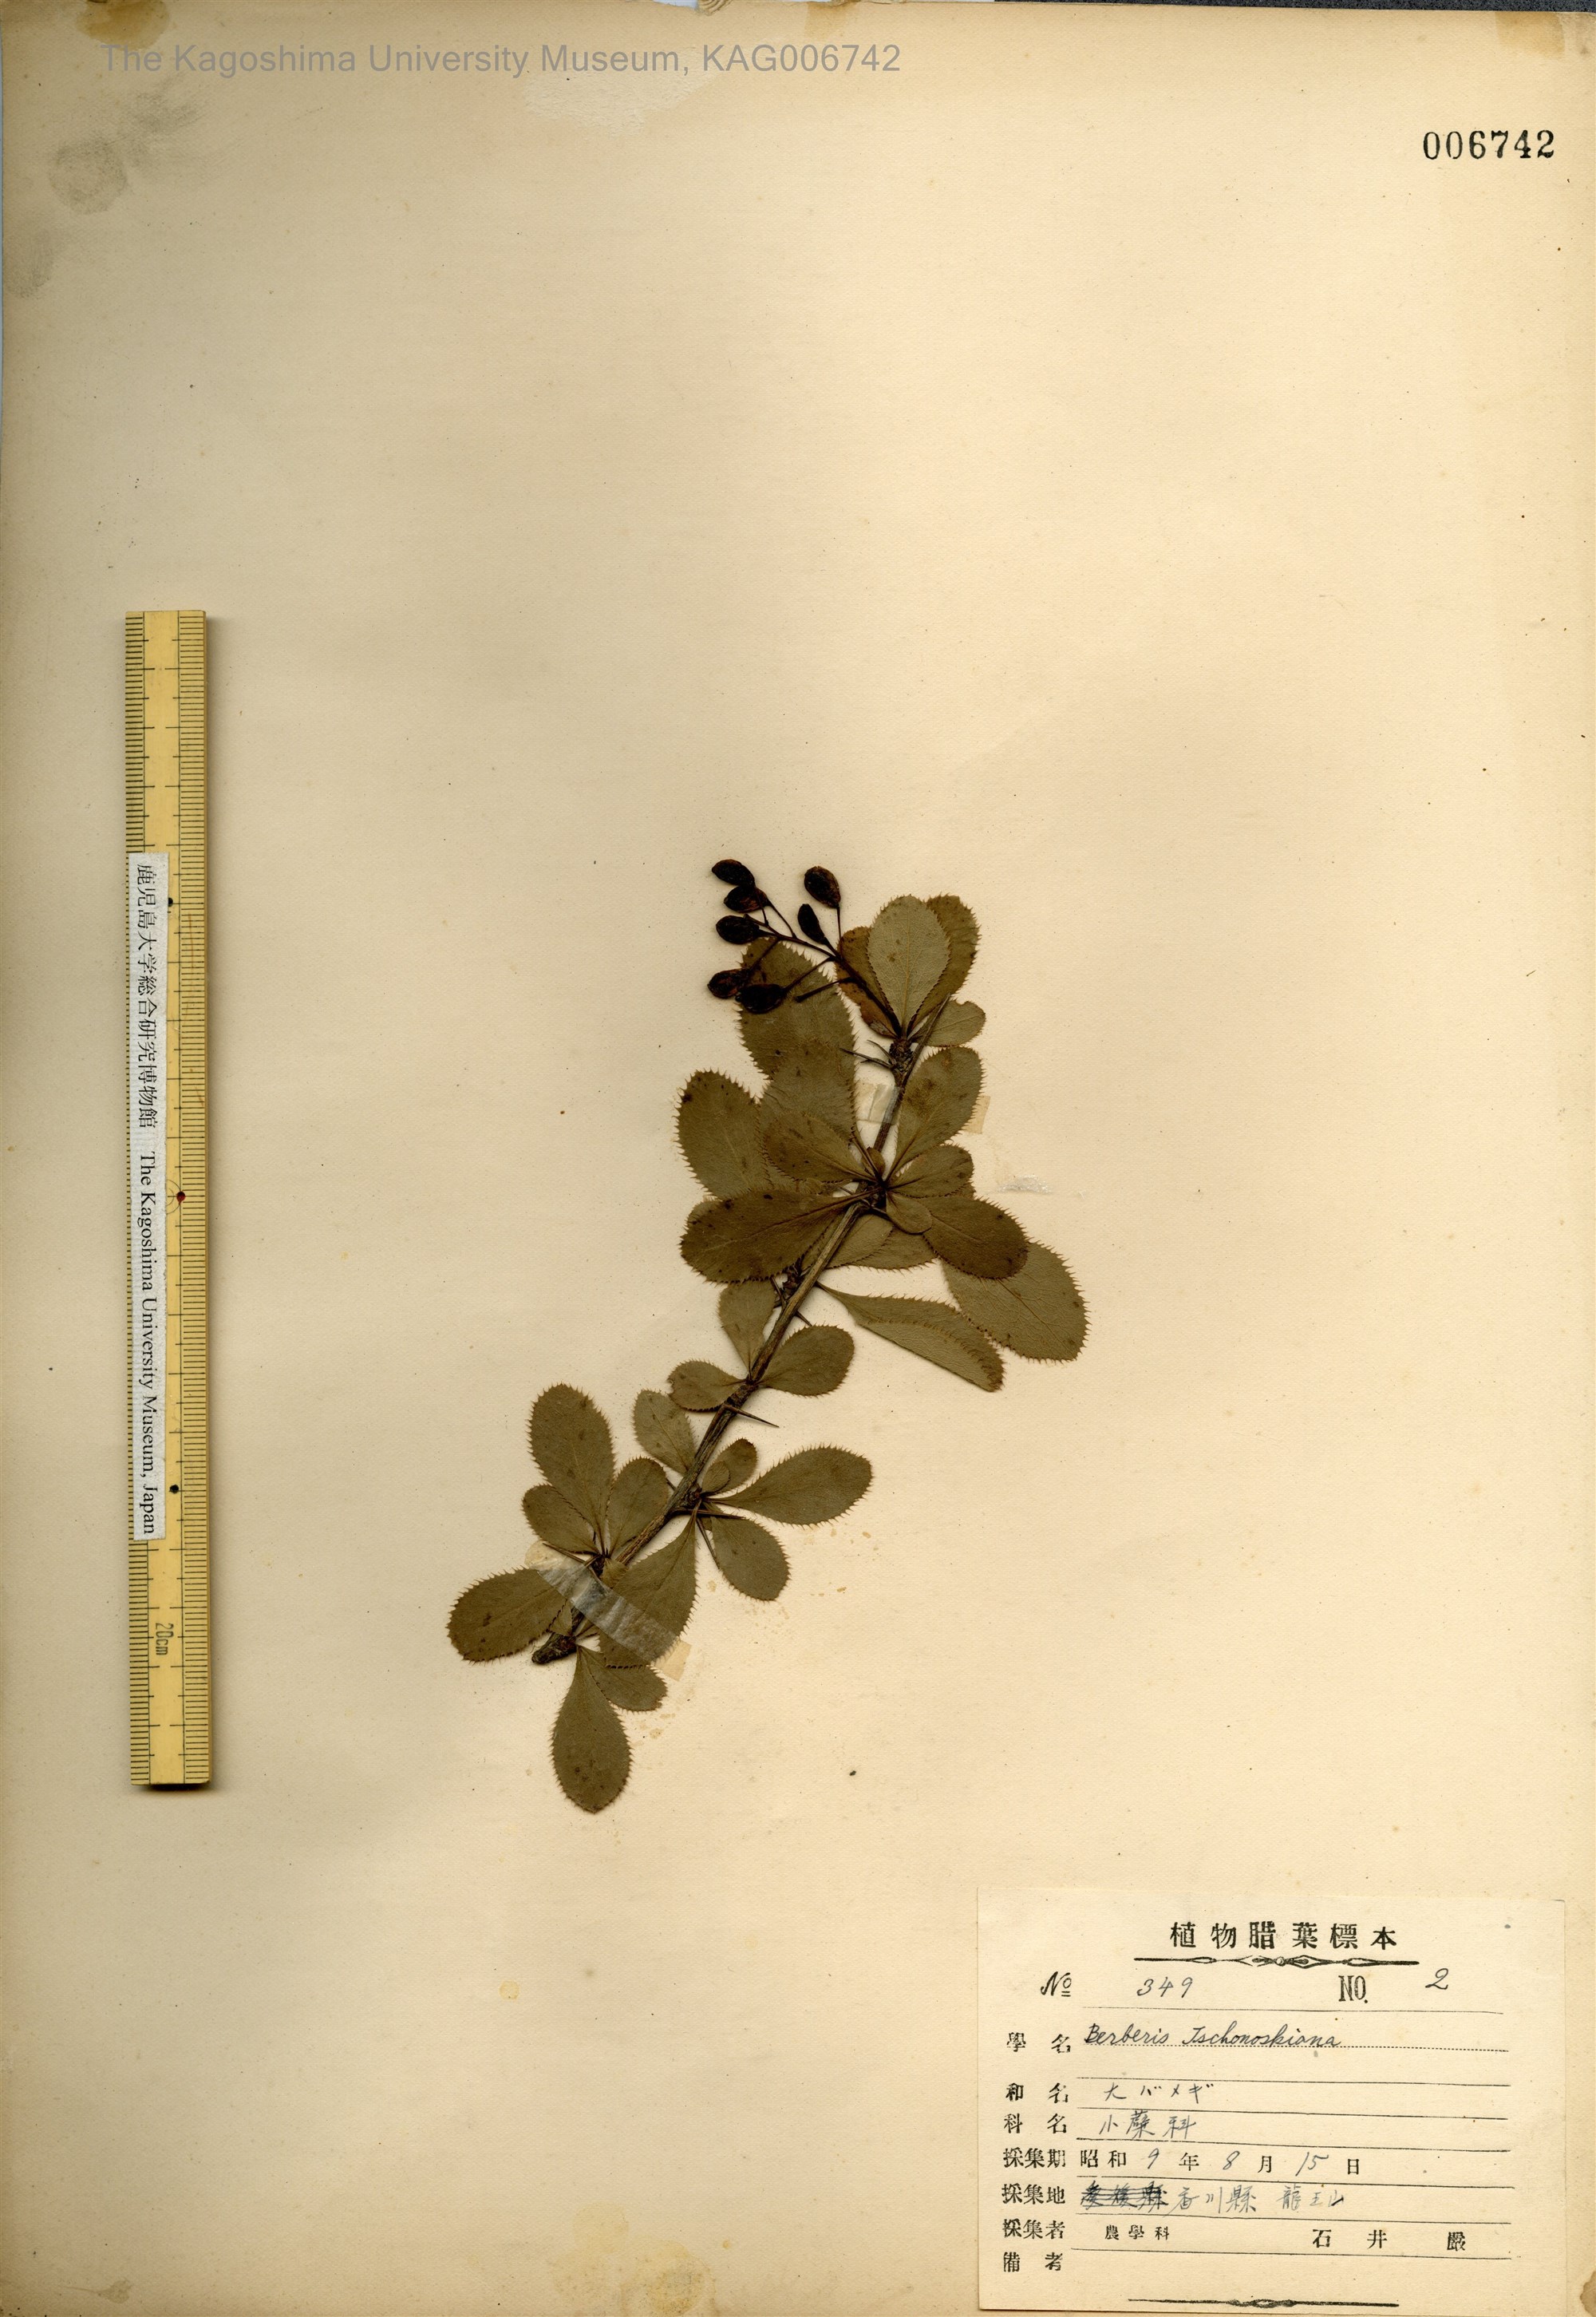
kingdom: Plantae
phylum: Tracheophyta
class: Magnoliopsida
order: Ranunculales
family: Berberidaceae
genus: Berberis
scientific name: Berberis tschonoskyana
